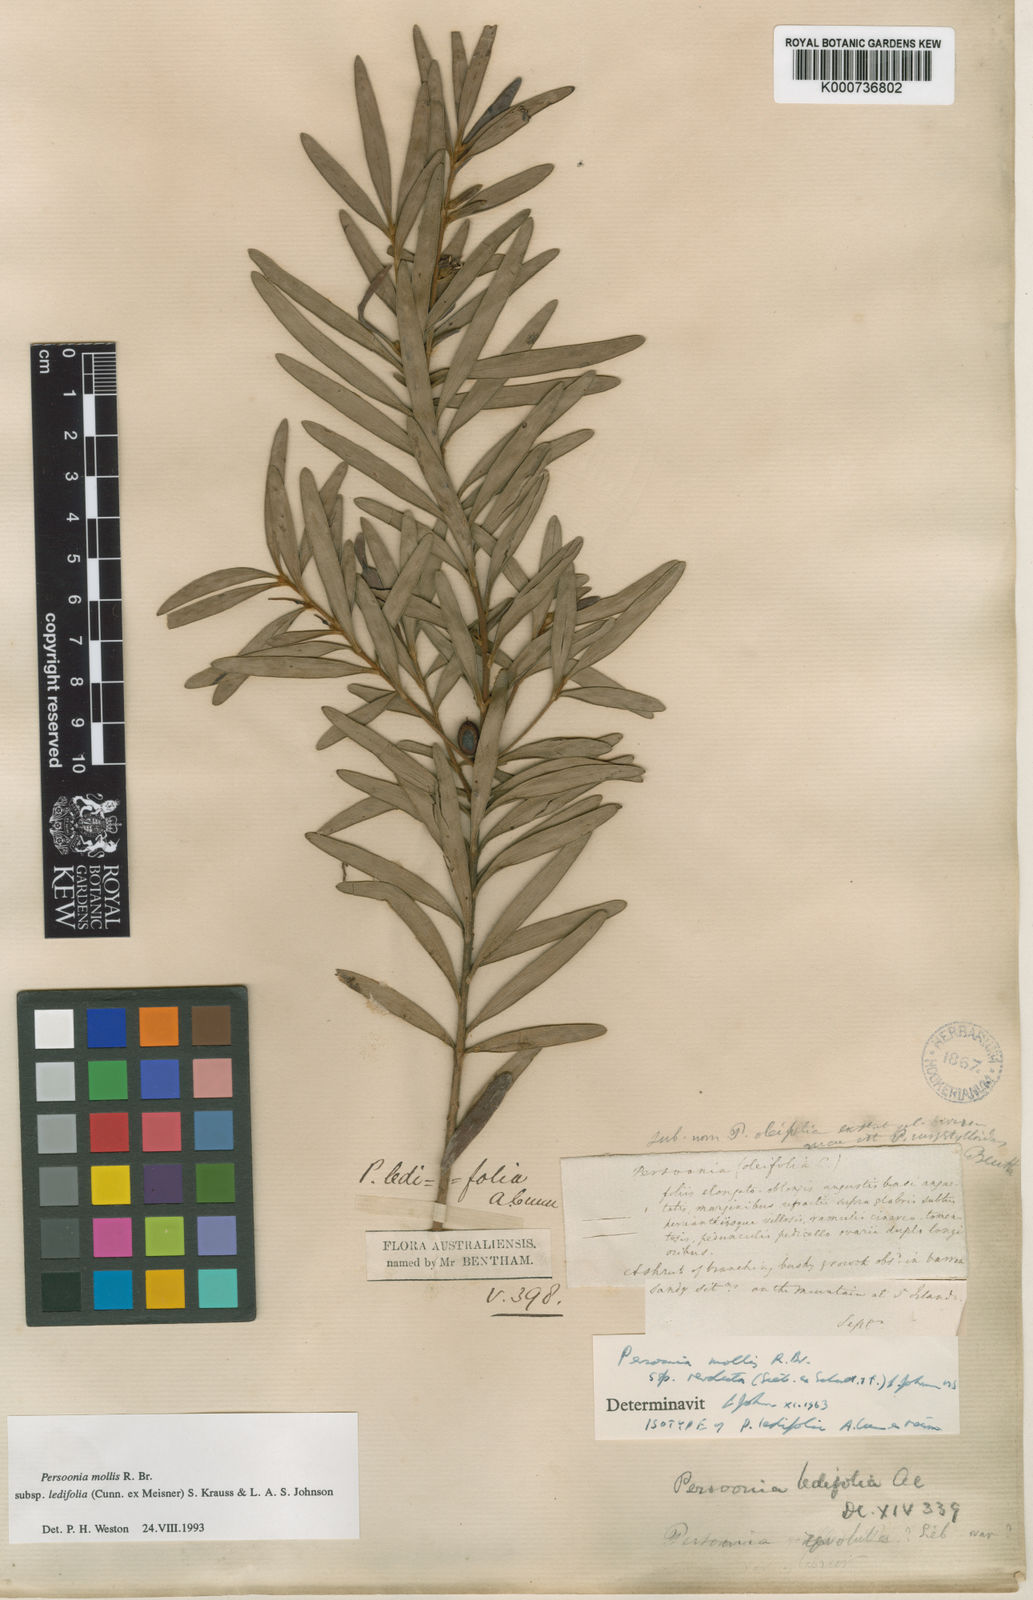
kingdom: Plantae
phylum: Tracheophyta
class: Magnoliopsida
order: Proteales
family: Proteaceae
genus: Persoonia
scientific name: Persoonia mollis
